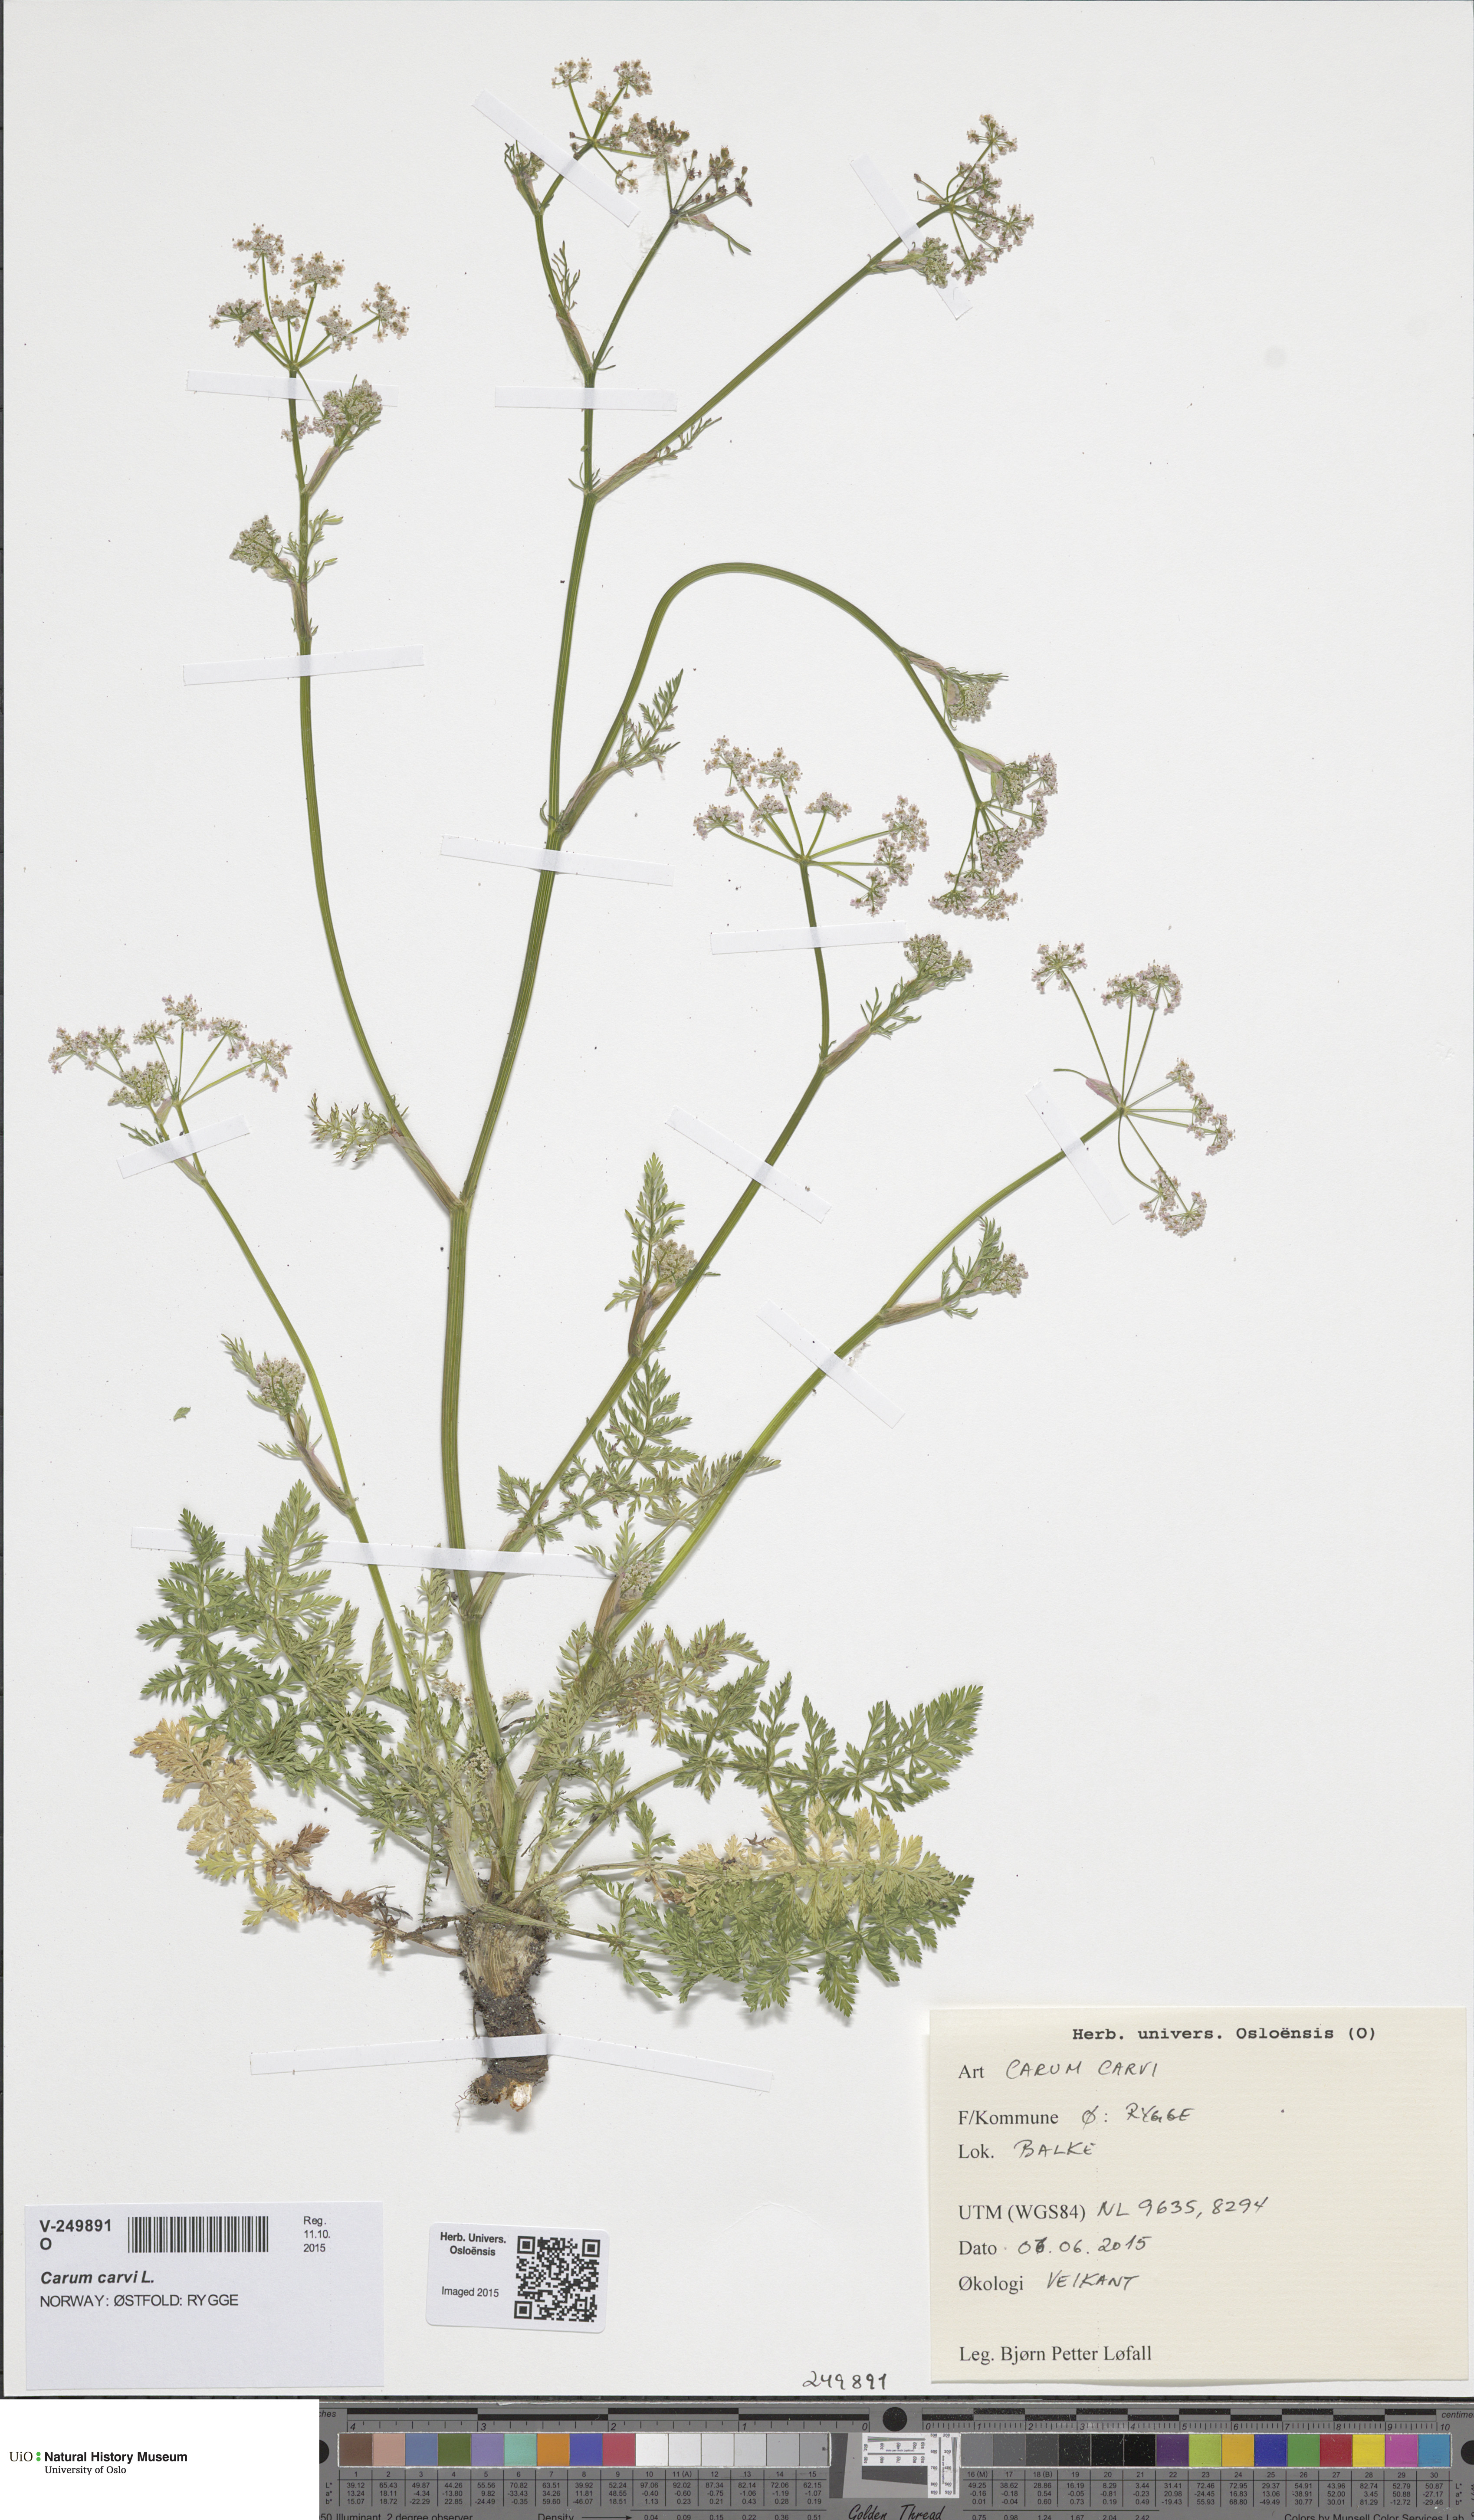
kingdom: Plantae
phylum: Tracheophyta
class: Magnoliopsida
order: Apiales
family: Apiaceae
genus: Carum
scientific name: Carum carvi
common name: Caraway
